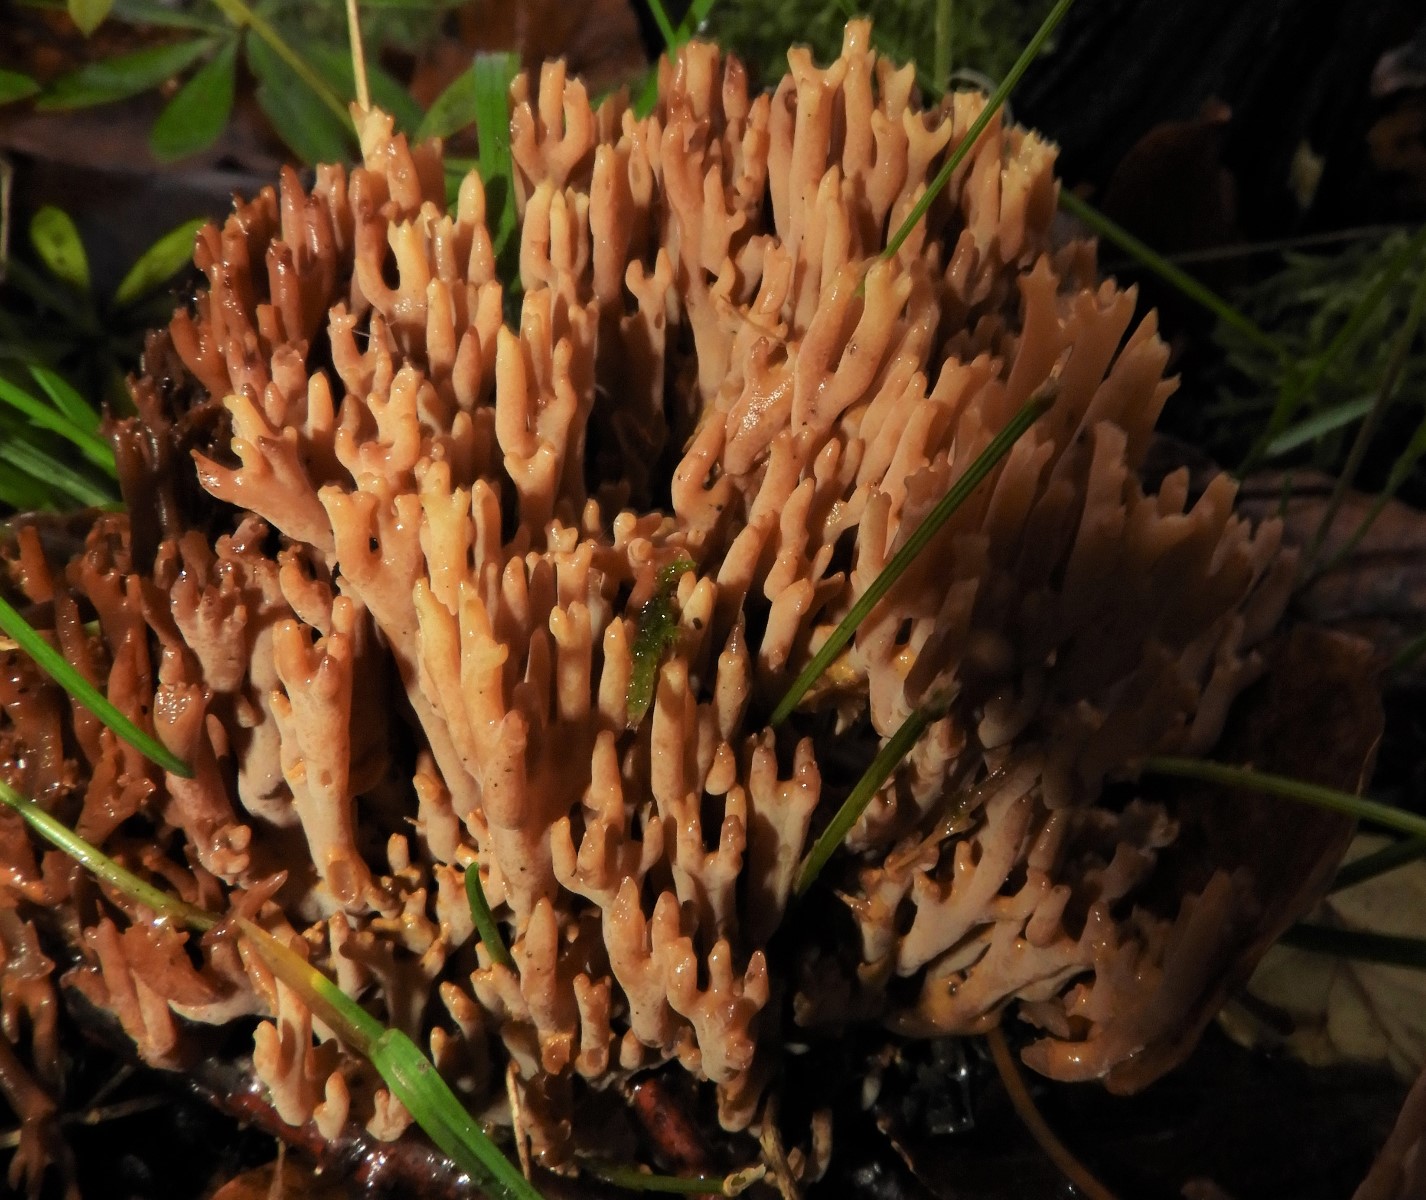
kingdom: Fungi
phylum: Basidiomycota
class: Agaricomycetes
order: Gomphales
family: Gomphaceae
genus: Ramaria
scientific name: Ramaria stricta
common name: rank koralsvamp
